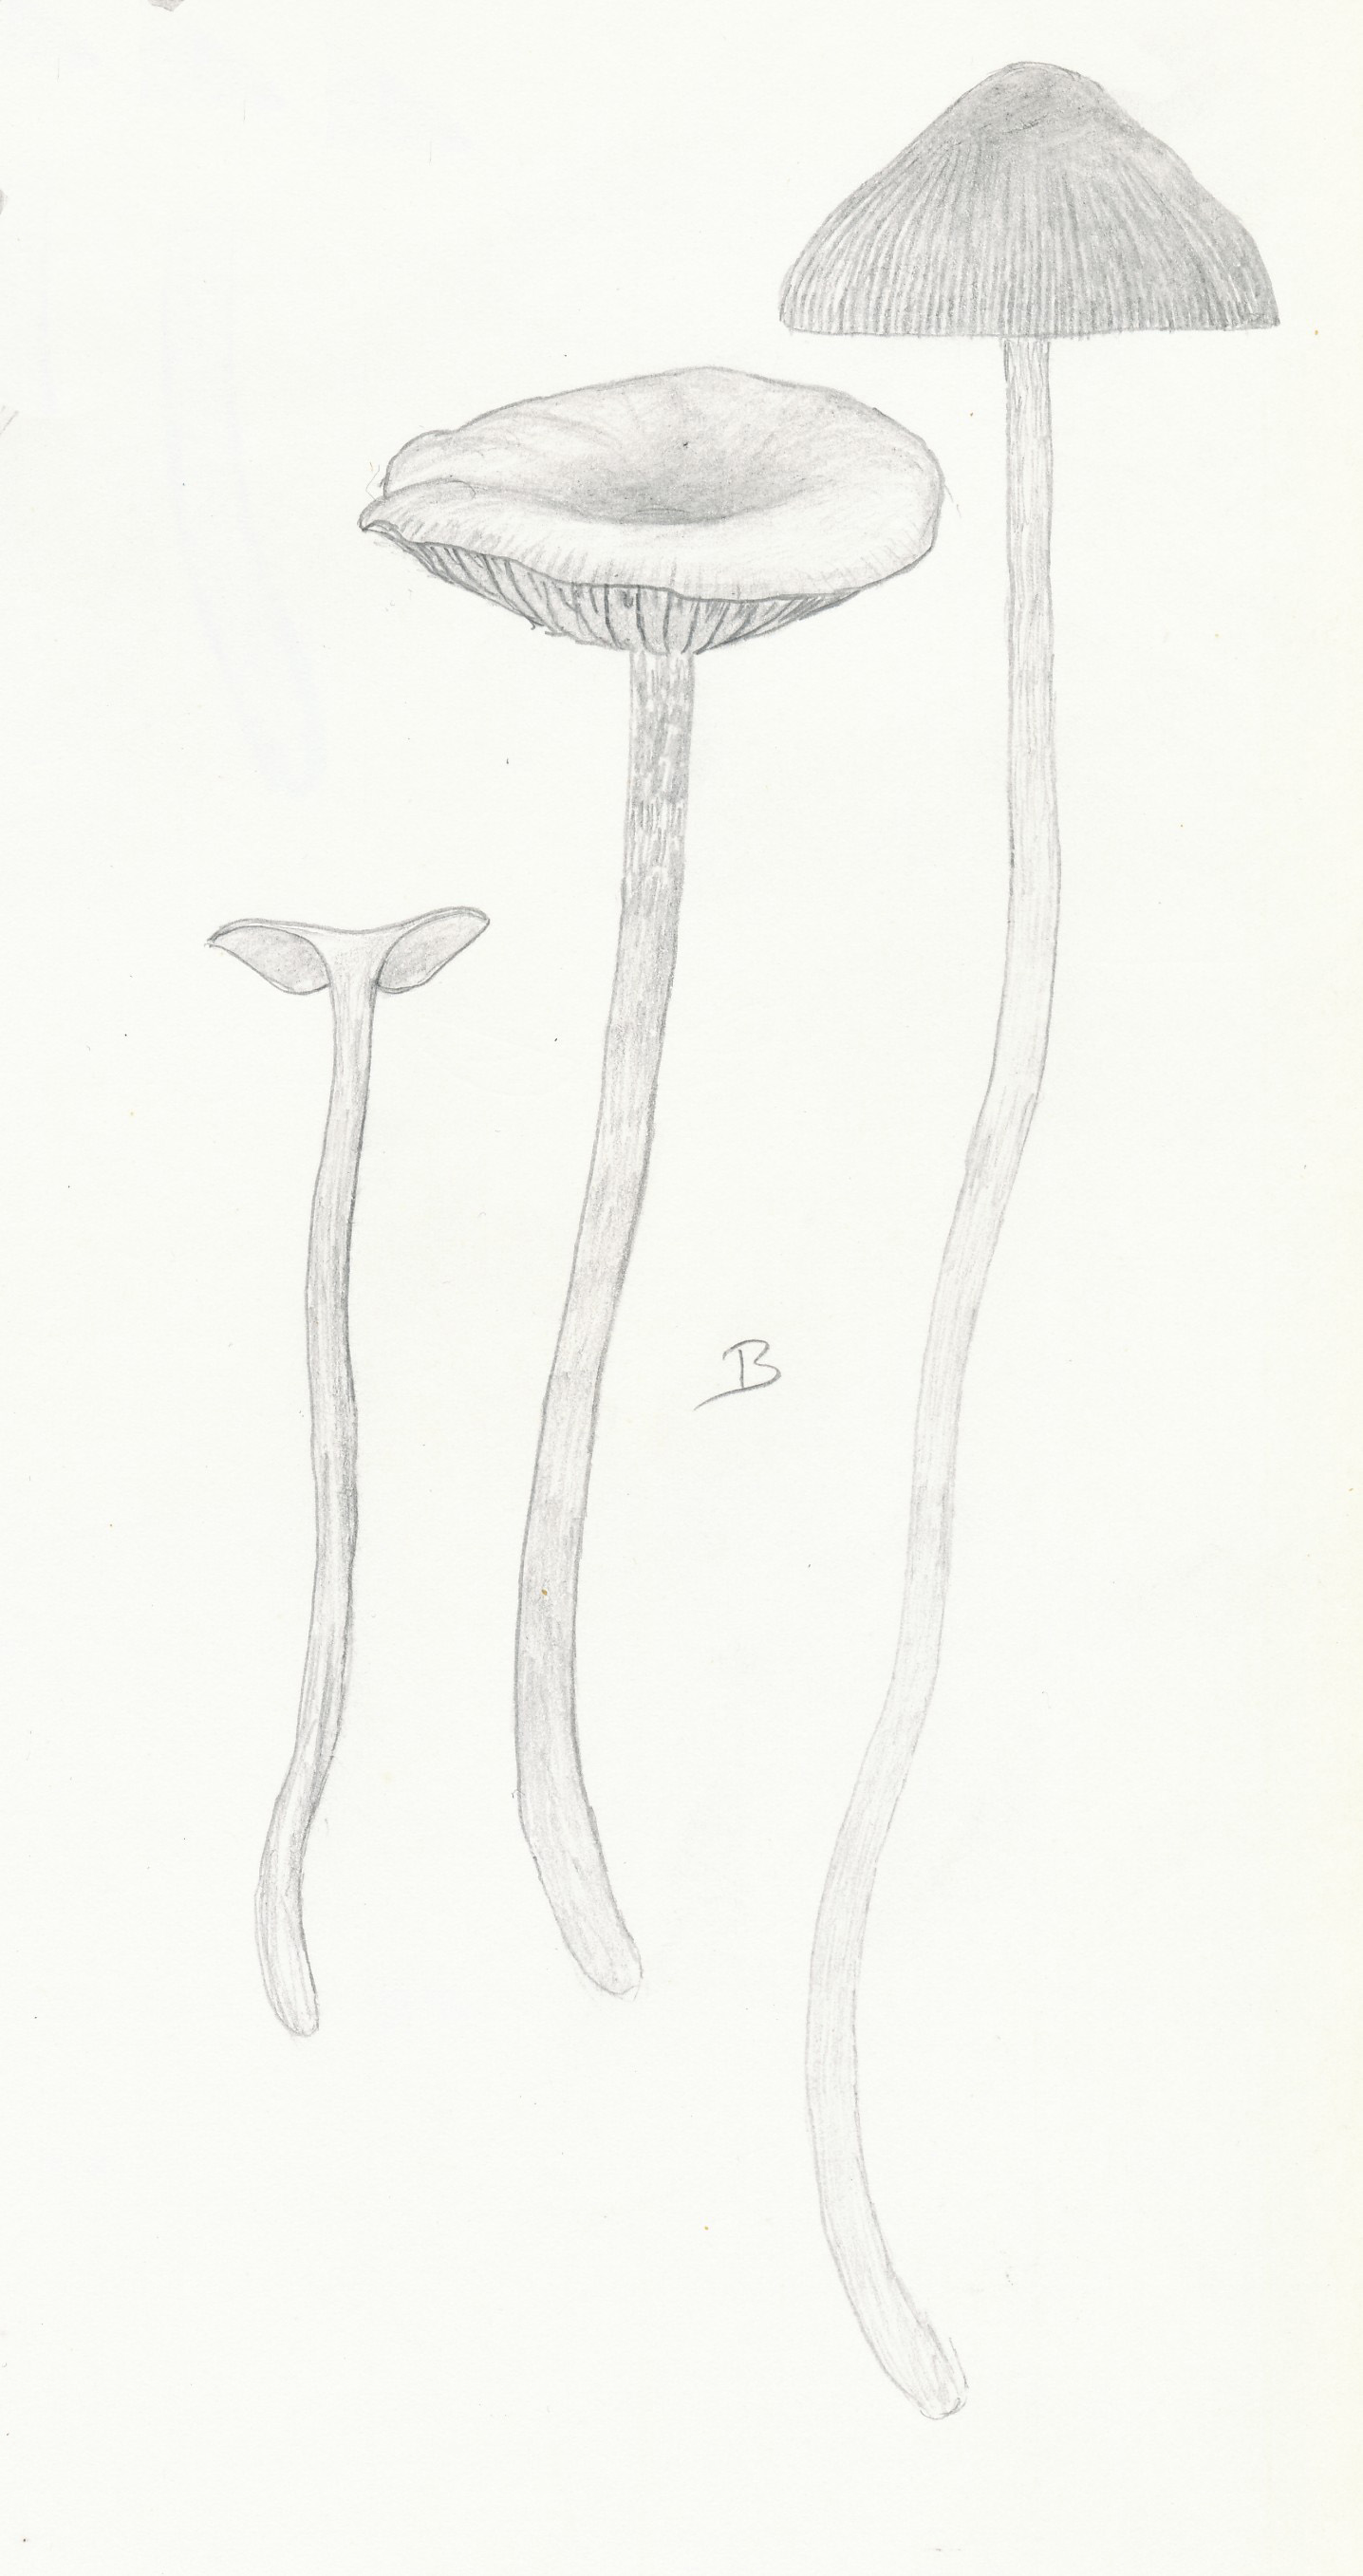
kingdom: Fungi
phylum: Basidiomycota
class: Agaricomycetes
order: Agaricales
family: Strophariaceae
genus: Hypholoma
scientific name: Hypholoma myosotis
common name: slimet svovlhat
